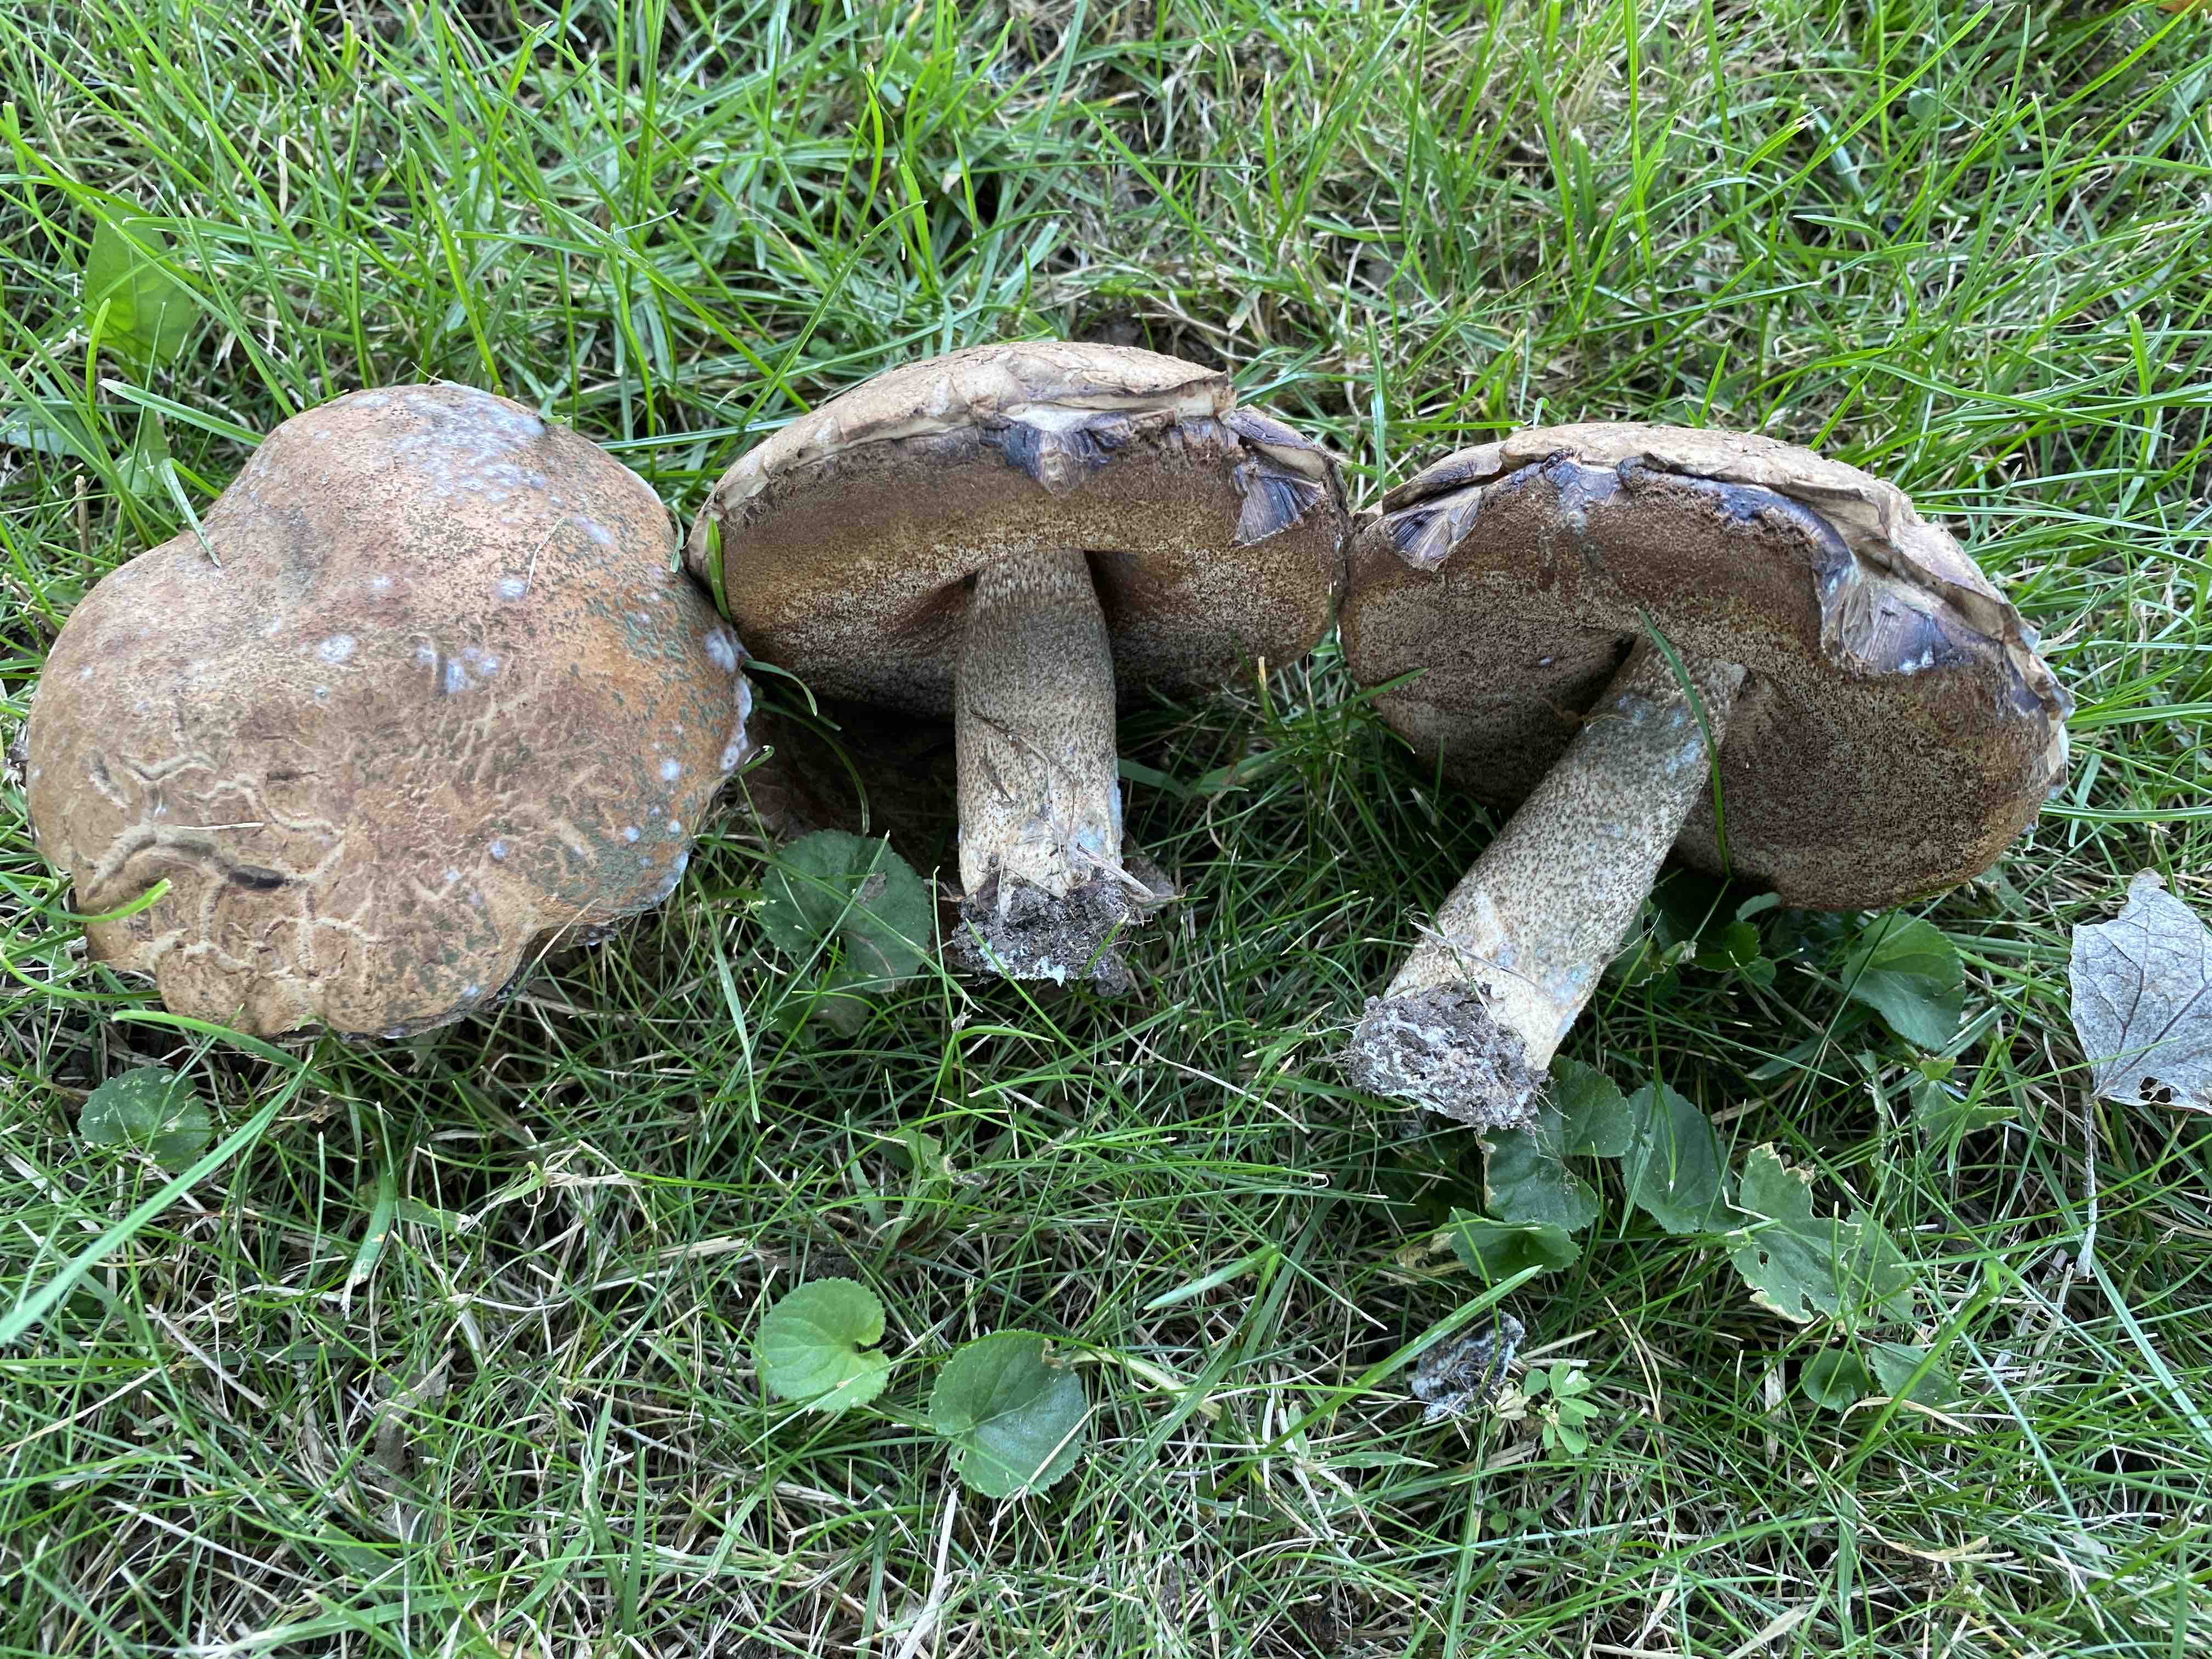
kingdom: Fungi
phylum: Basidiomycota
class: Agaricomycetes
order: Boletales
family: Boletaceae
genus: Leccinum
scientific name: Leccinum duriusculum
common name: poppel-skælrørhat
